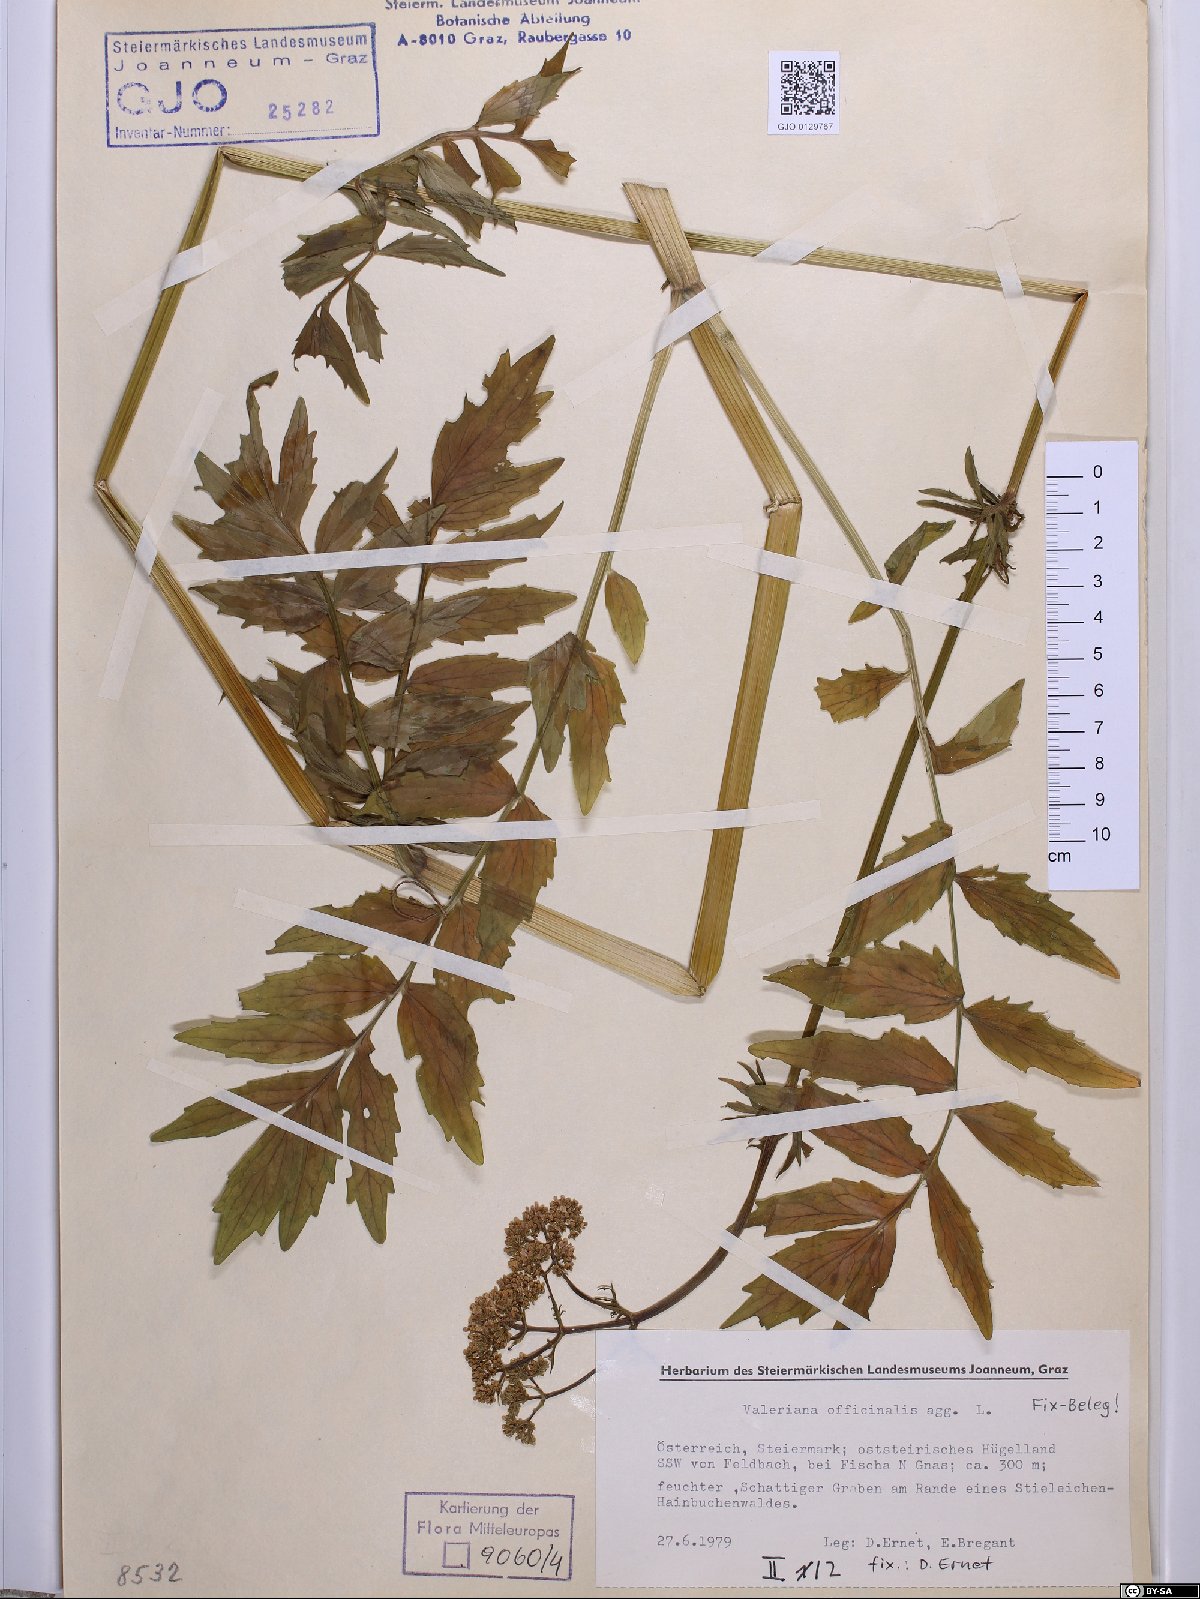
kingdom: Plantae
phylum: Tracheophyta
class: Magnoliopsida
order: Dipsacales
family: Caprifoliaceae
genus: Valeriana
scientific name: Valeriana officinalis
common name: Common valerian
